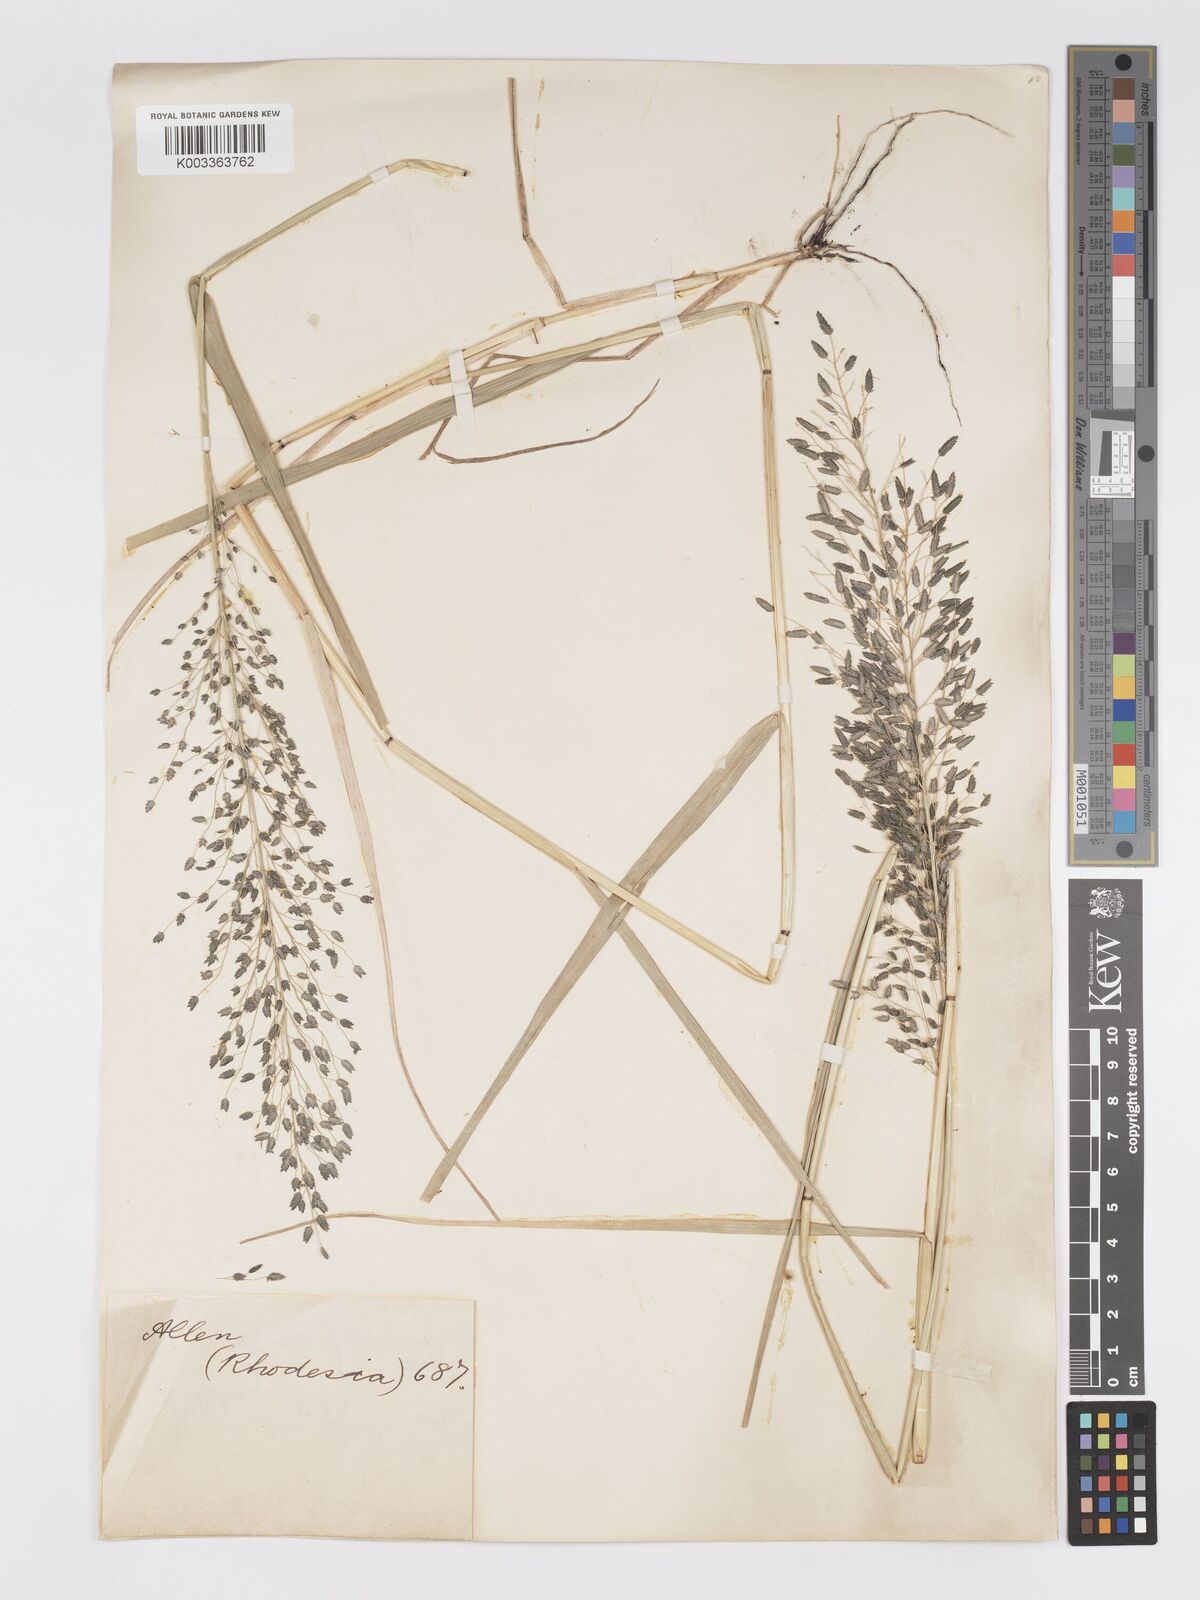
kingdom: Plantae
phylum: Tracheophyta
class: Liliopsida
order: Poales
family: Poaceae
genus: Eragrostis
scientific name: Eragrostis cilianensis
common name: Stinkgrass
